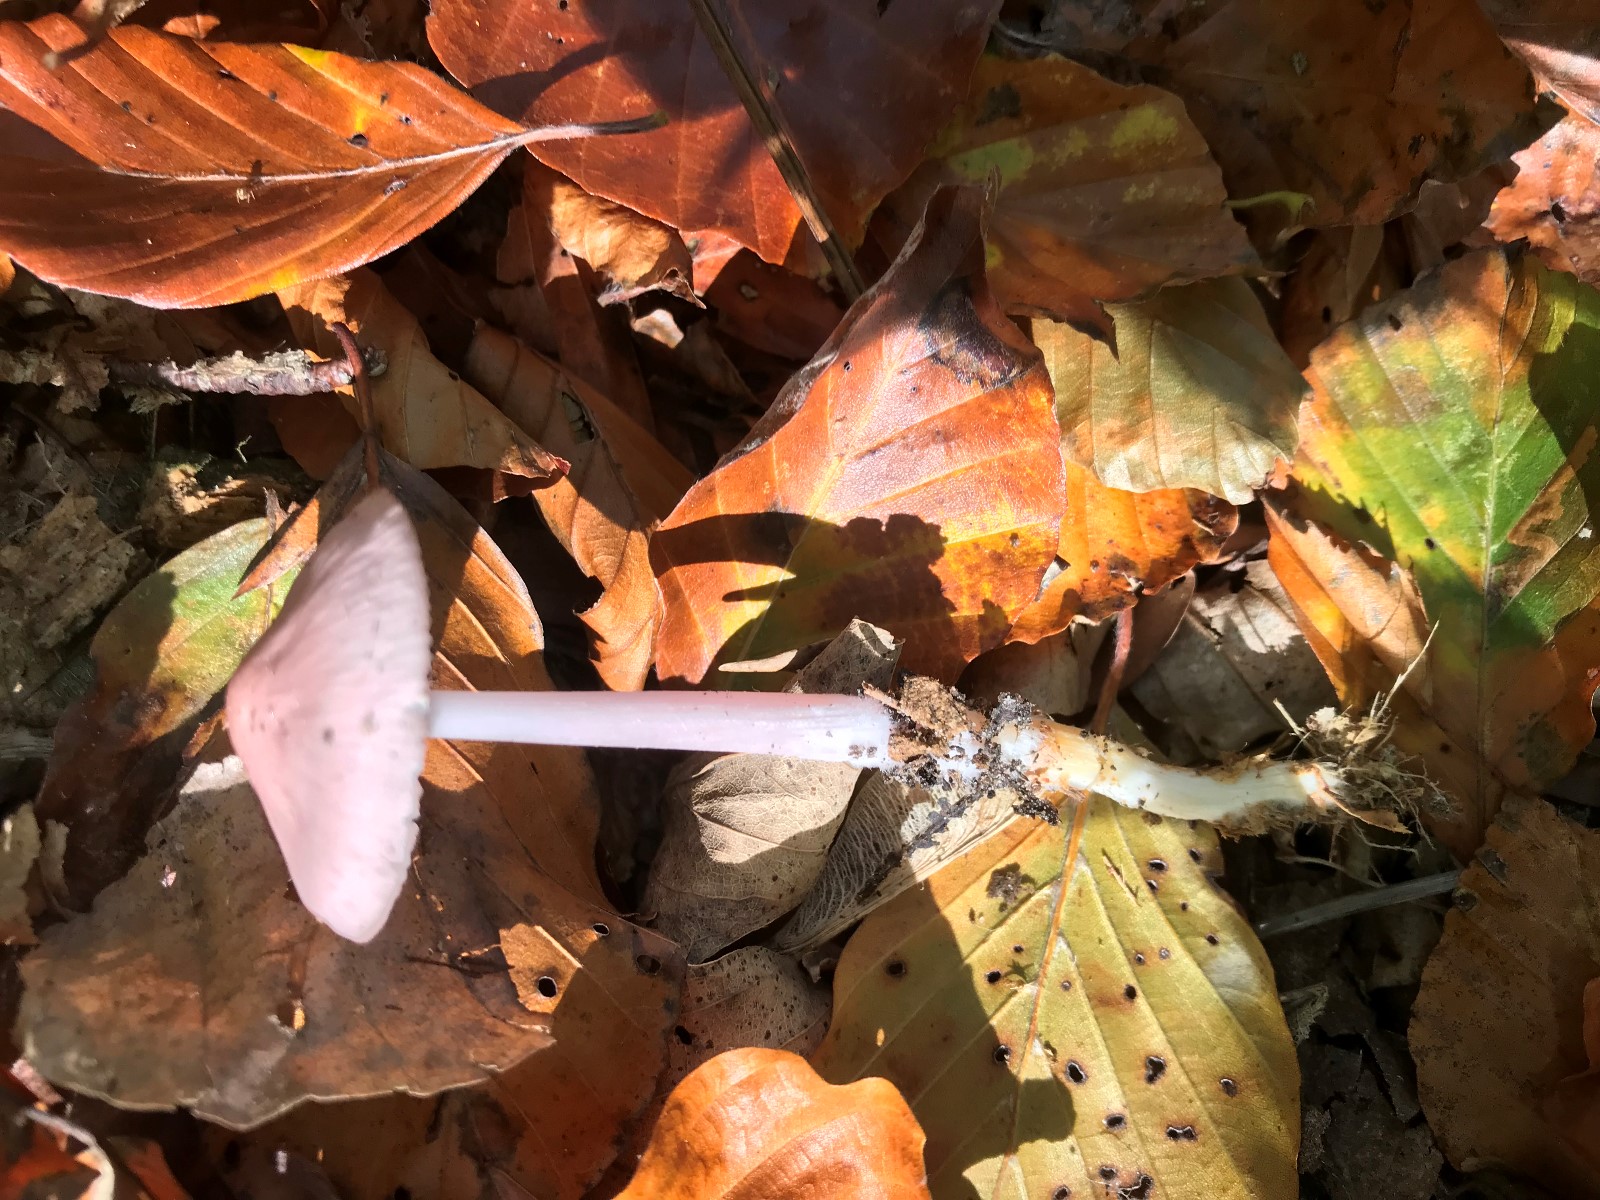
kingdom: Fungi
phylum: Basidiomycota
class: Agaricomycetes
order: Agaricales
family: Mycenaceae
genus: Mycena
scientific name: Mycena rosea
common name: rosa huesvamp
